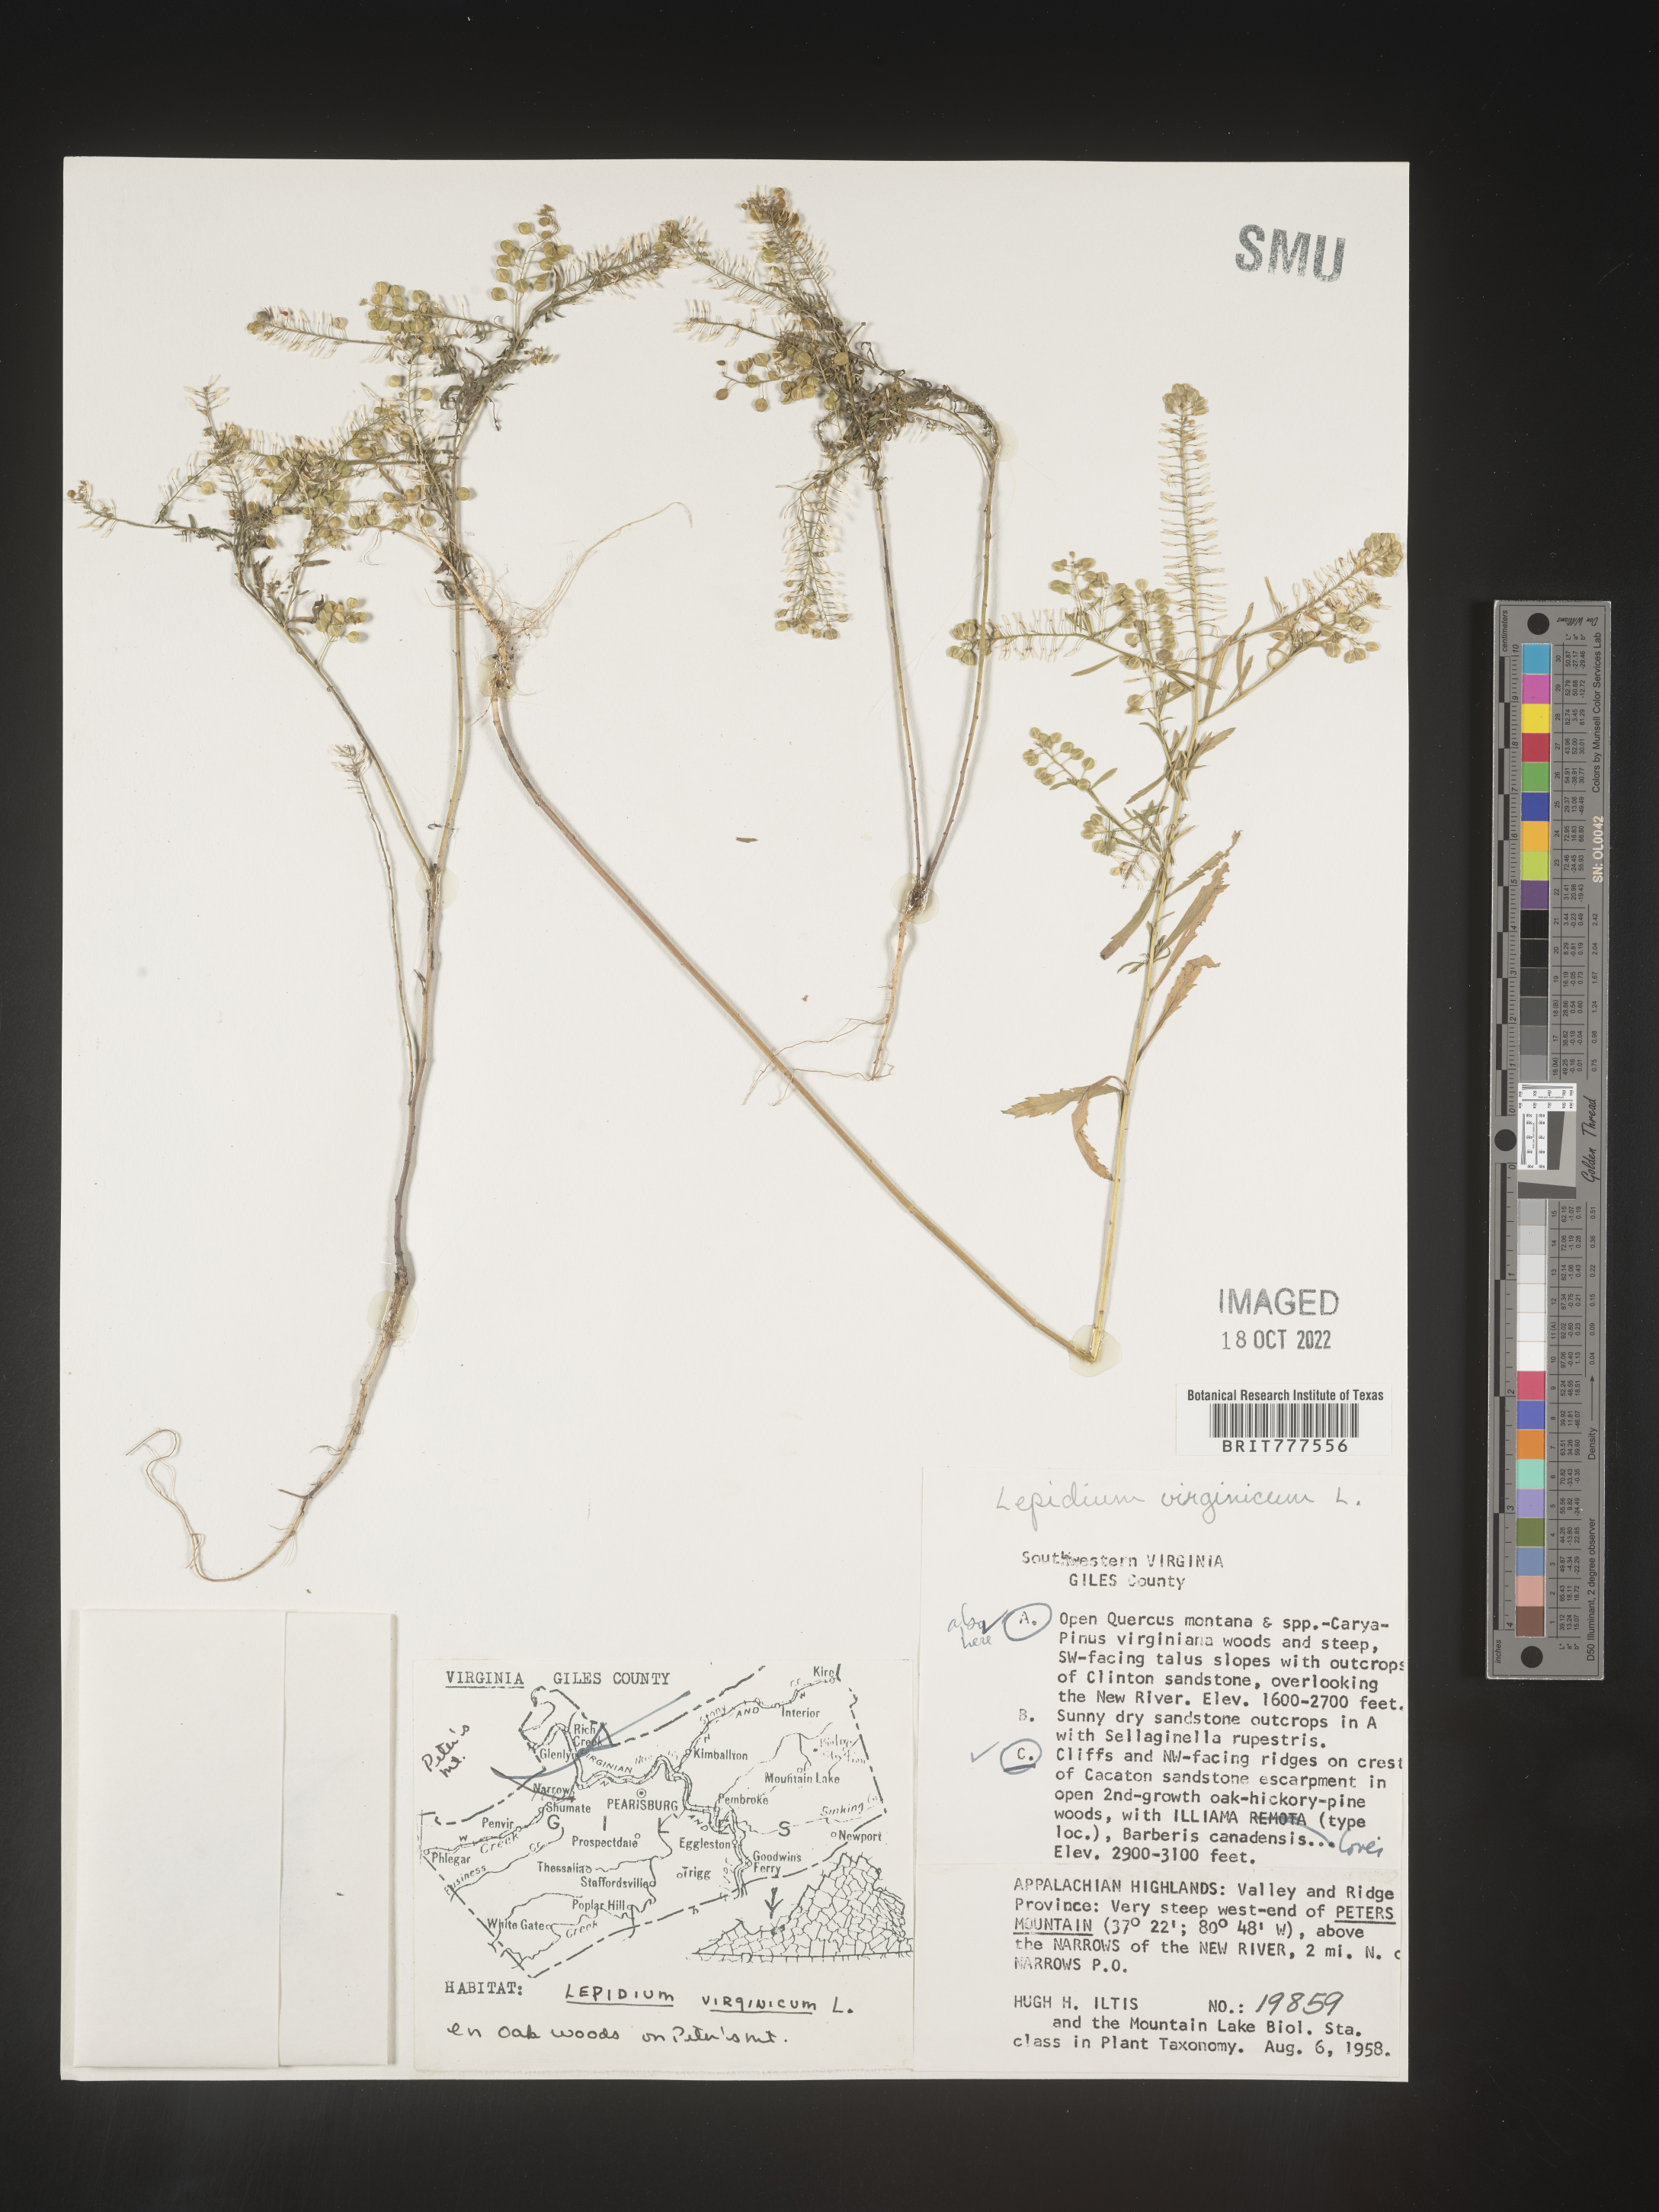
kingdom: Plantae
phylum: Tracheophyta
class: Magnoliopsida
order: Brassicales
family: Brassicaceae
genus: Lepidium
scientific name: Lepidium virginicum
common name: Least pepperwort
